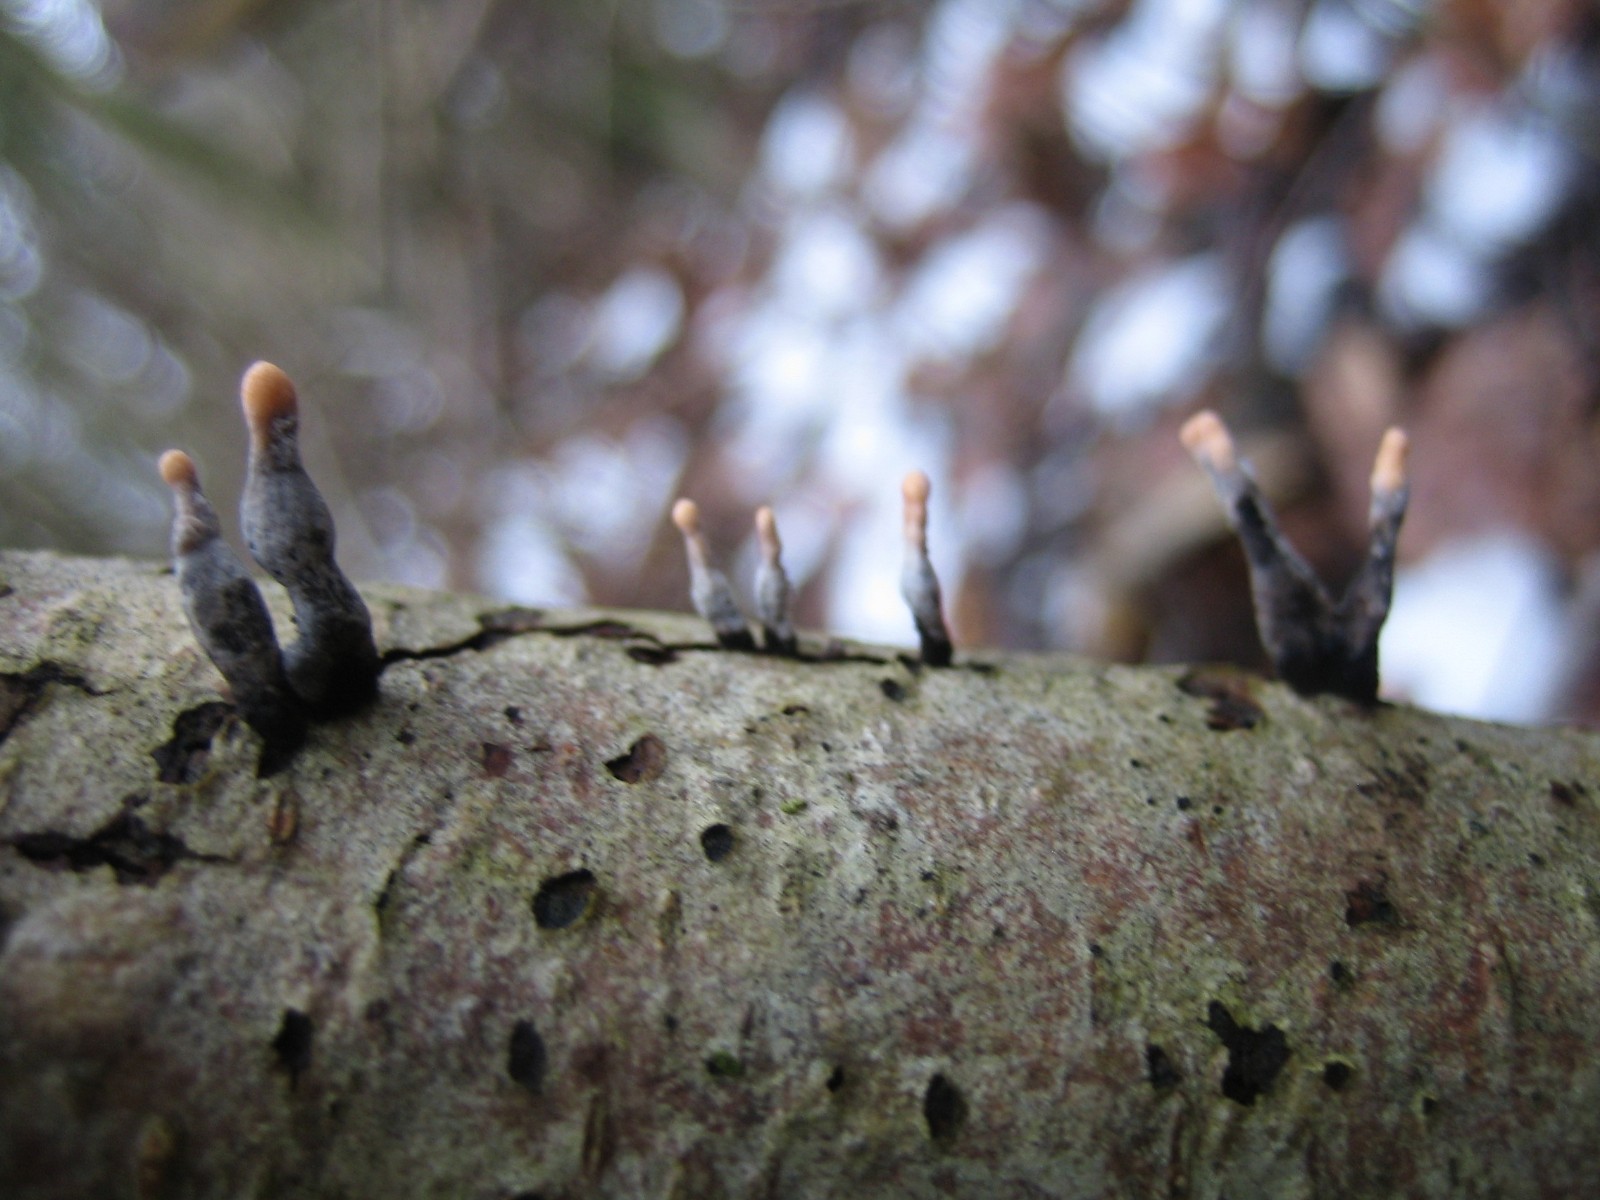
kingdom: Fungi
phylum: Ascomycota
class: Sordariomycetes
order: Xylariales
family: Xylariaceae
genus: Xylaria
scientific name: Xylaria hypoxylon
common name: grenet stødsvamp
